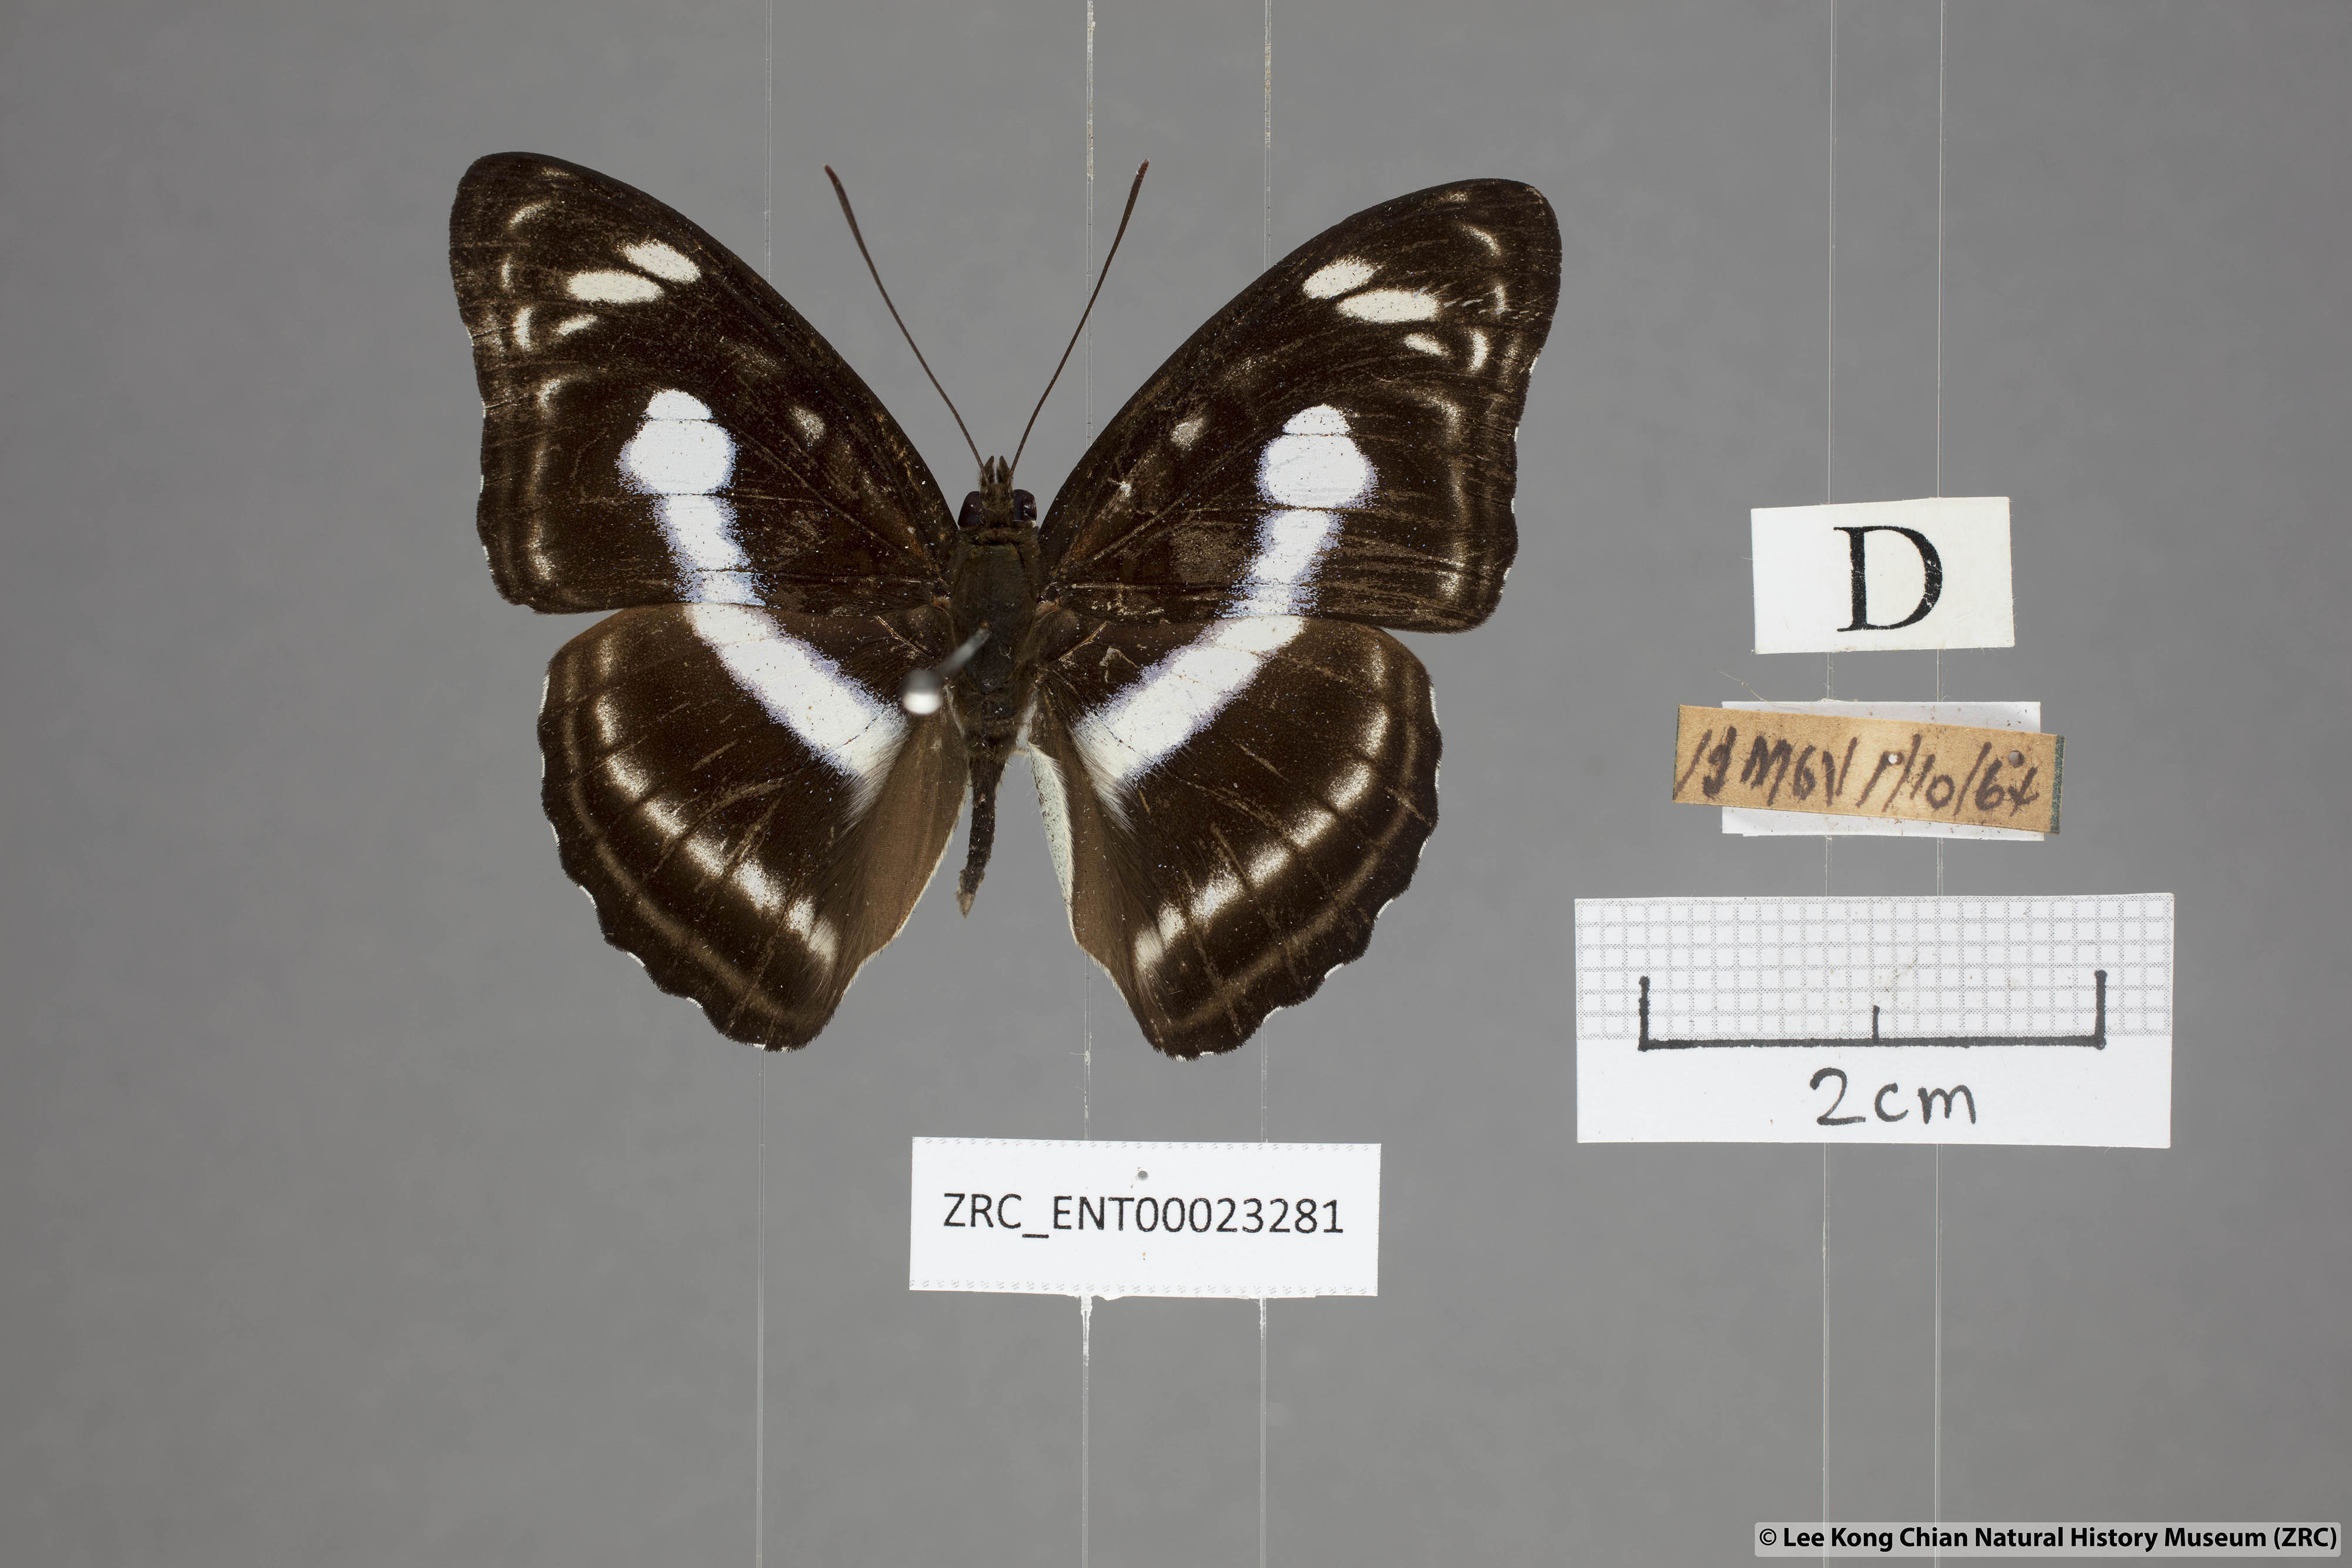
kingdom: Animalia
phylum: Arthropoda
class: Insecta
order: Lepidoptera
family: Nymphalidae
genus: Parathyma
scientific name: Parathyma selenophora
